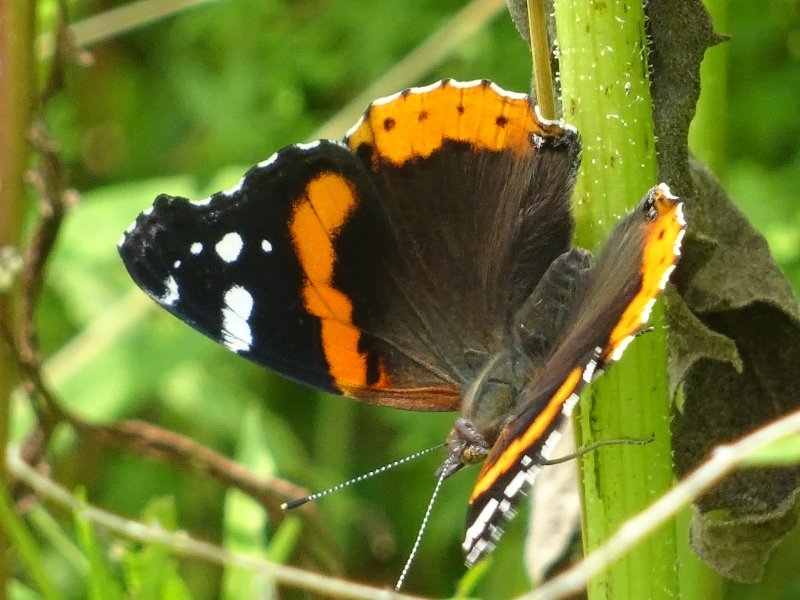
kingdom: Animalia
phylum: Arthropoda
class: Insecta
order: Lepidoptera
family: Nymphalidae
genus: Vanessa
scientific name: Vanessa atalanta
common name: Red Admiral
